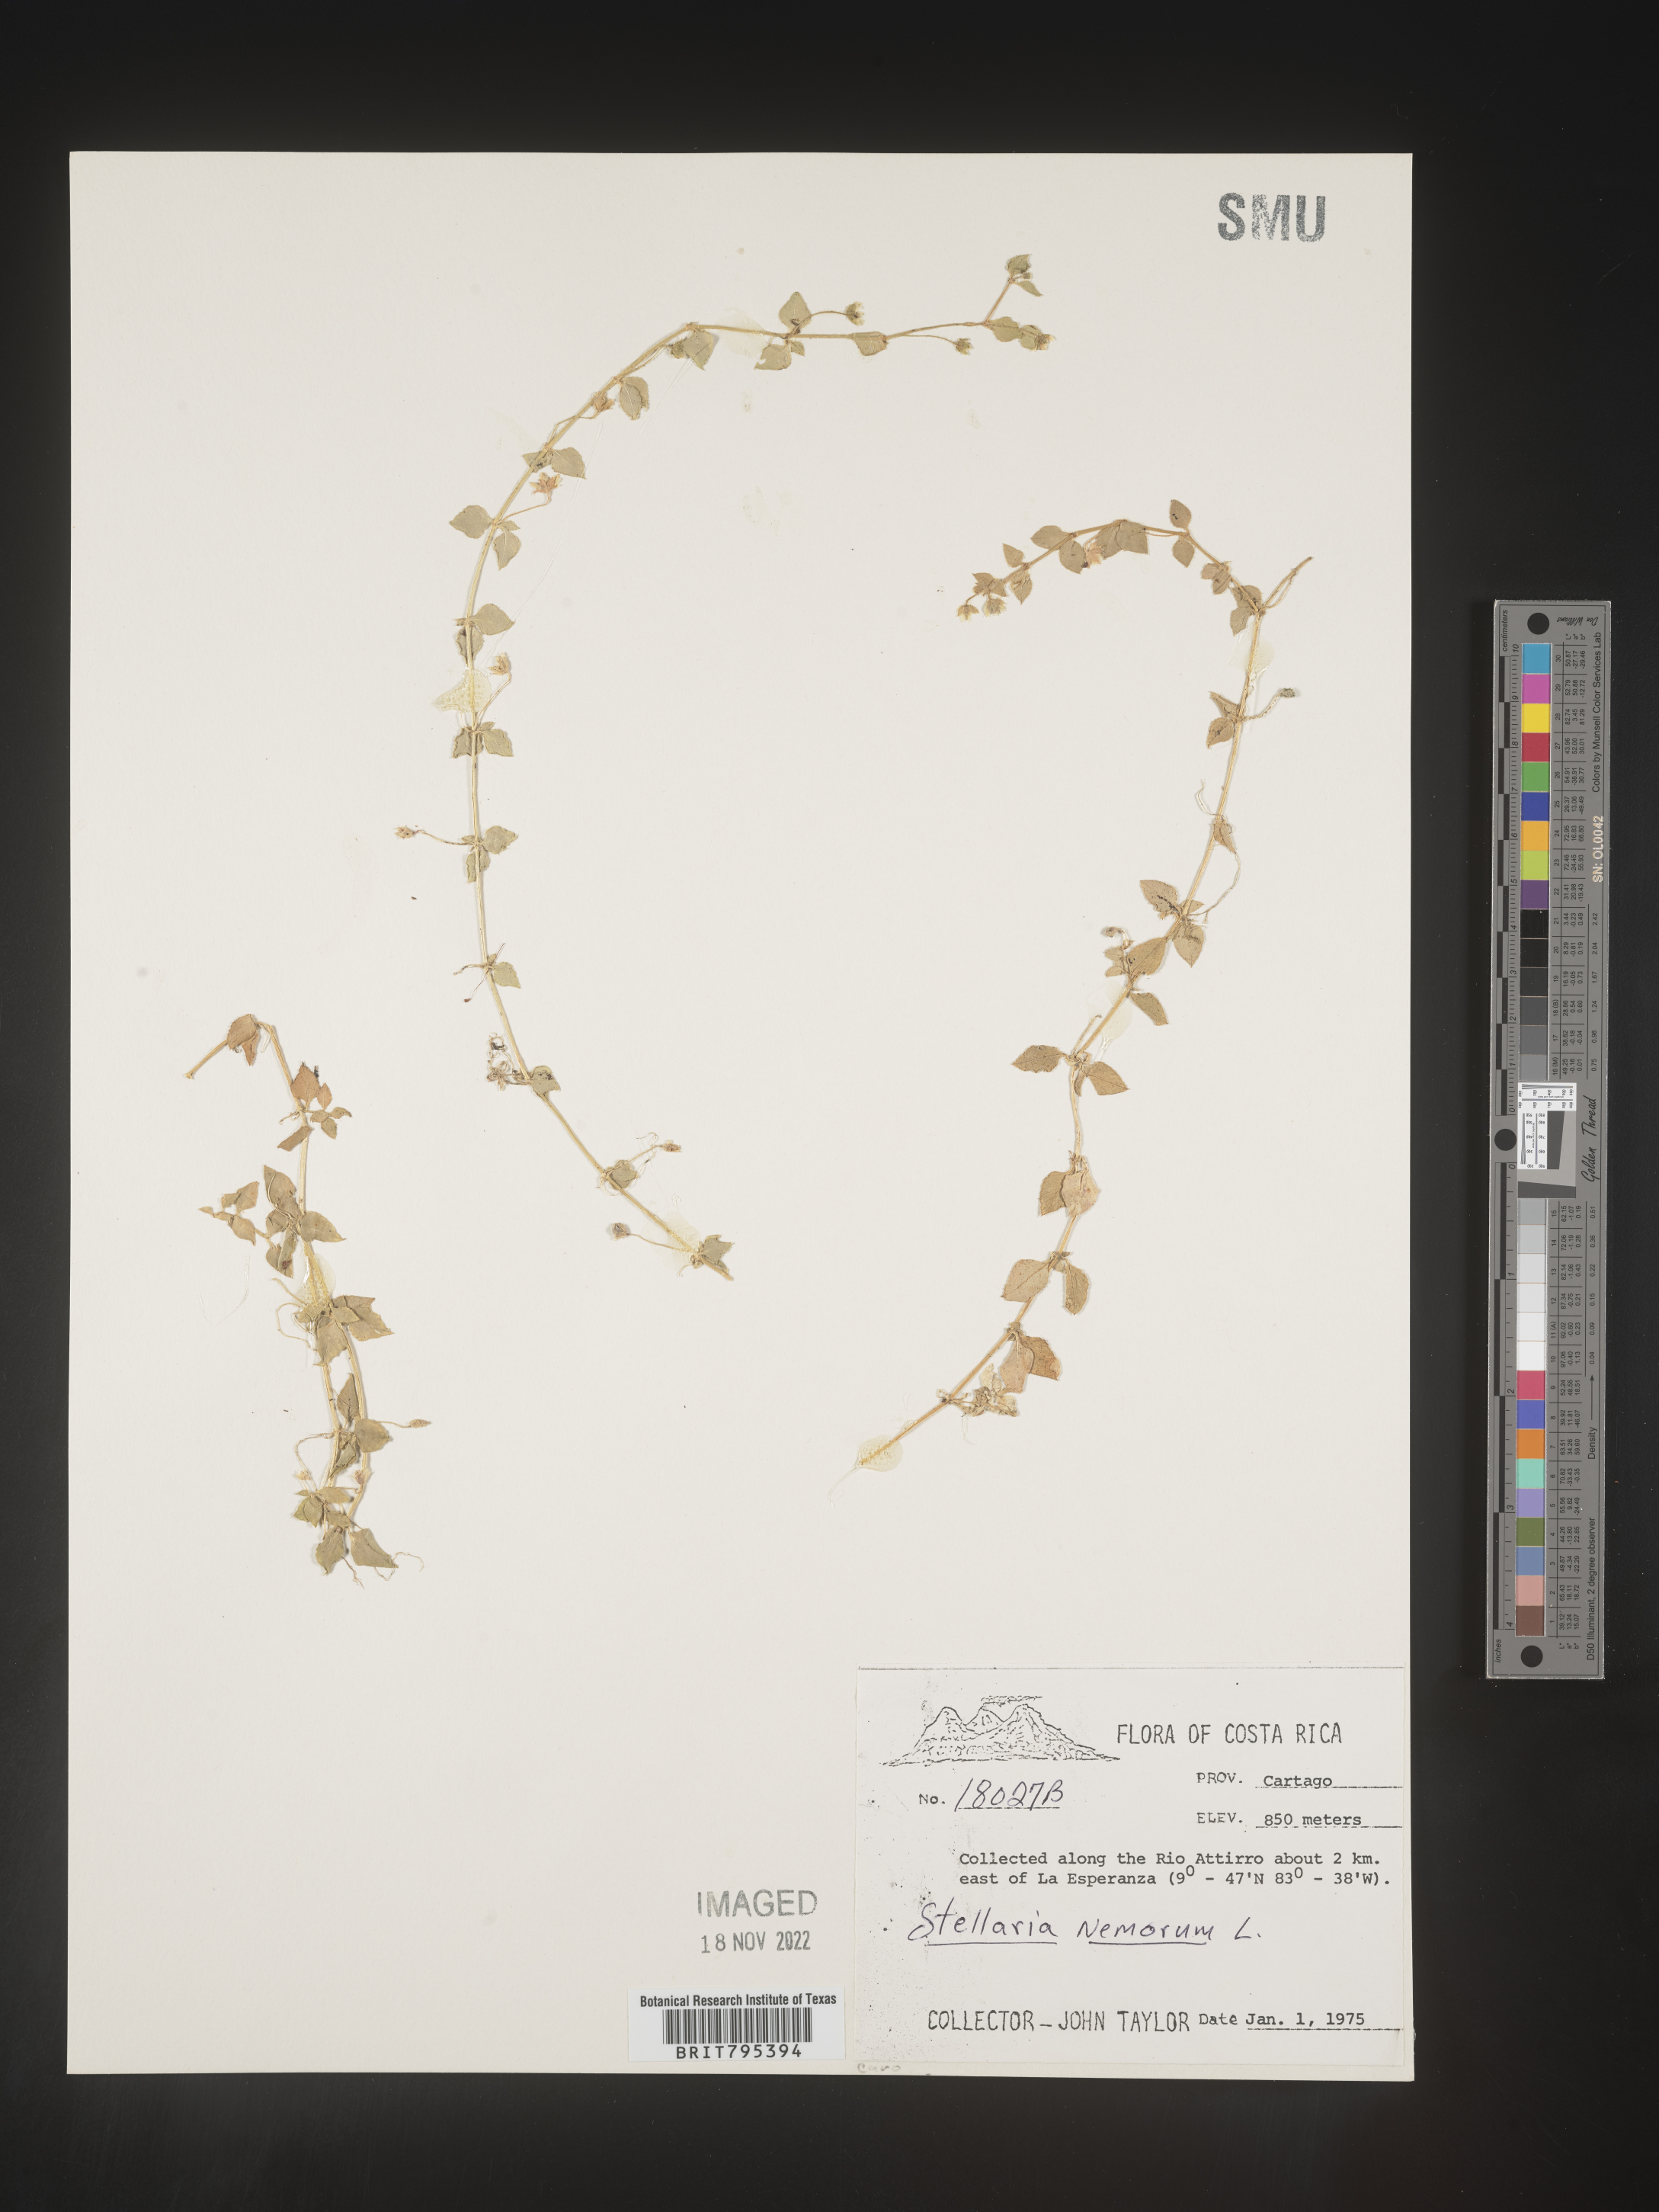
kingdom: Plantae
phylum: Tracheophyta
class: Magnoliopsida
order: Caryophyllales
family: Caryophyllaceae
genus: Stellaria
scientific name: Stellaria
